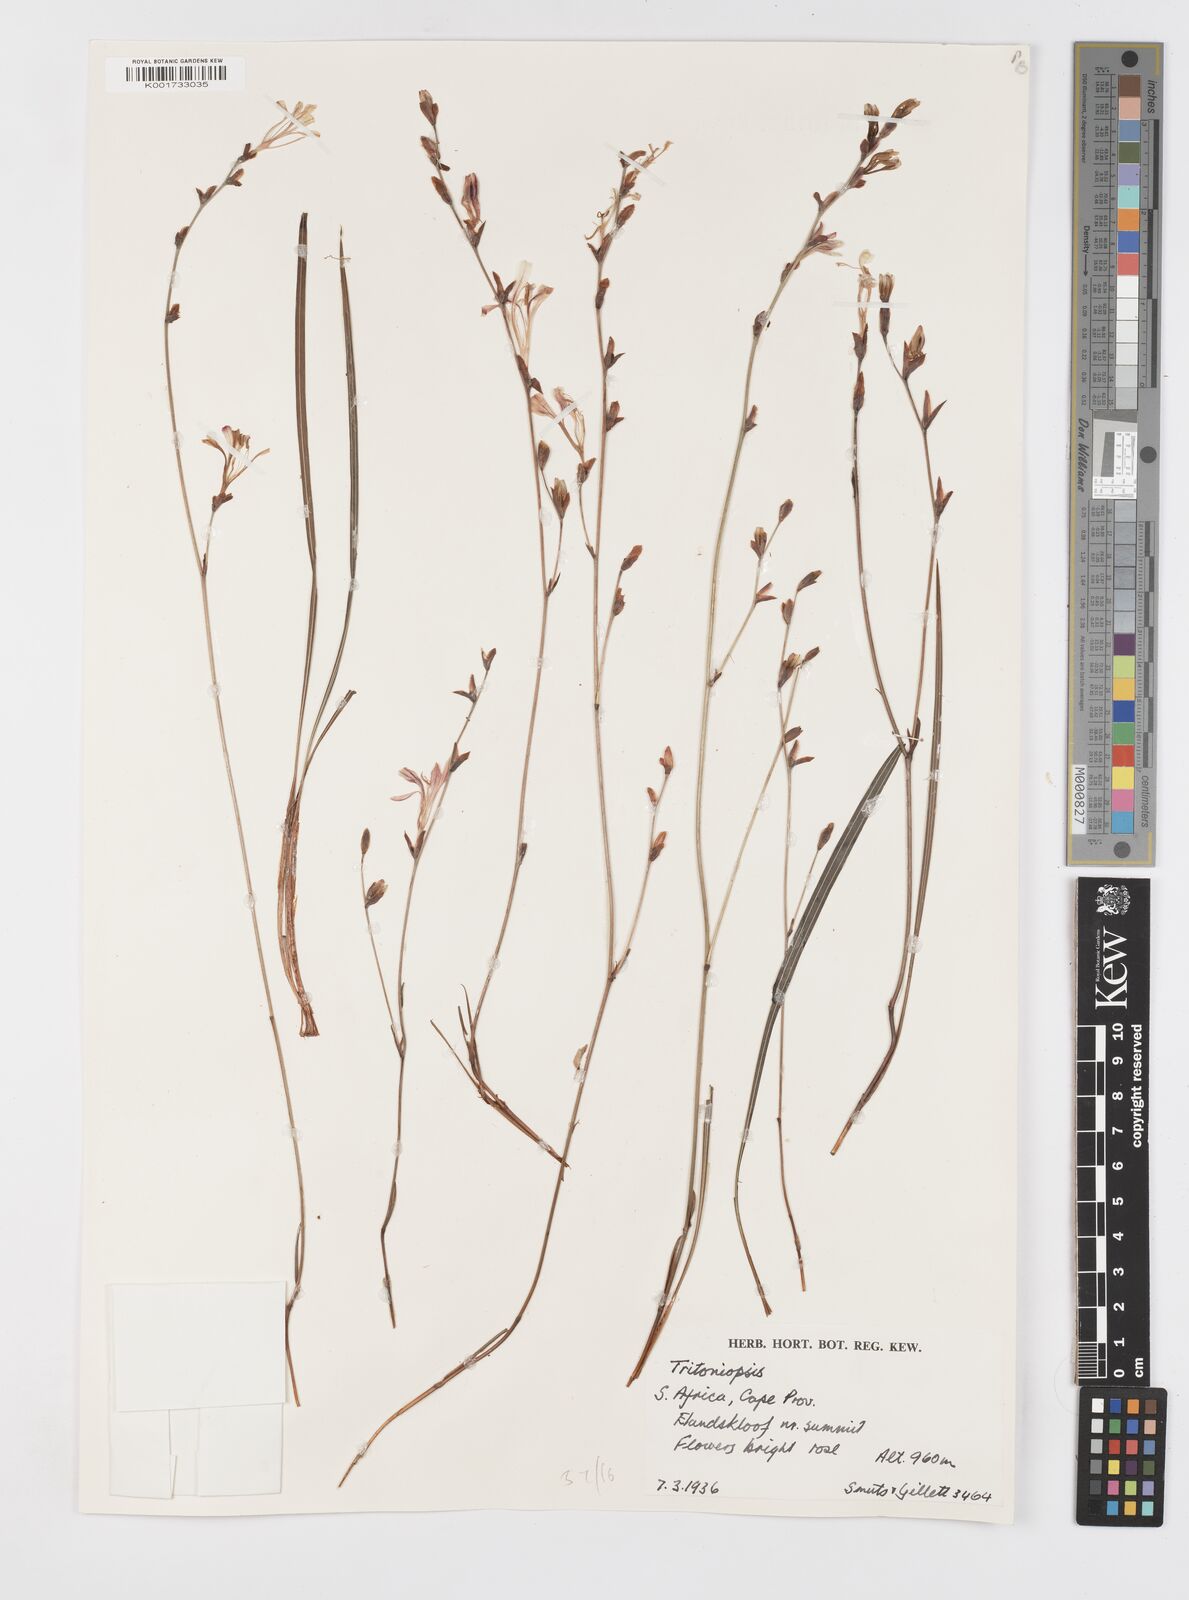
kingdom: Plantae
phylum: Tracheophyta
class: Liliopsida
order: Asparagales
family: Iridaceae
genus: Tritoniopsis
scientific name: Tritoniopsis ramosa
